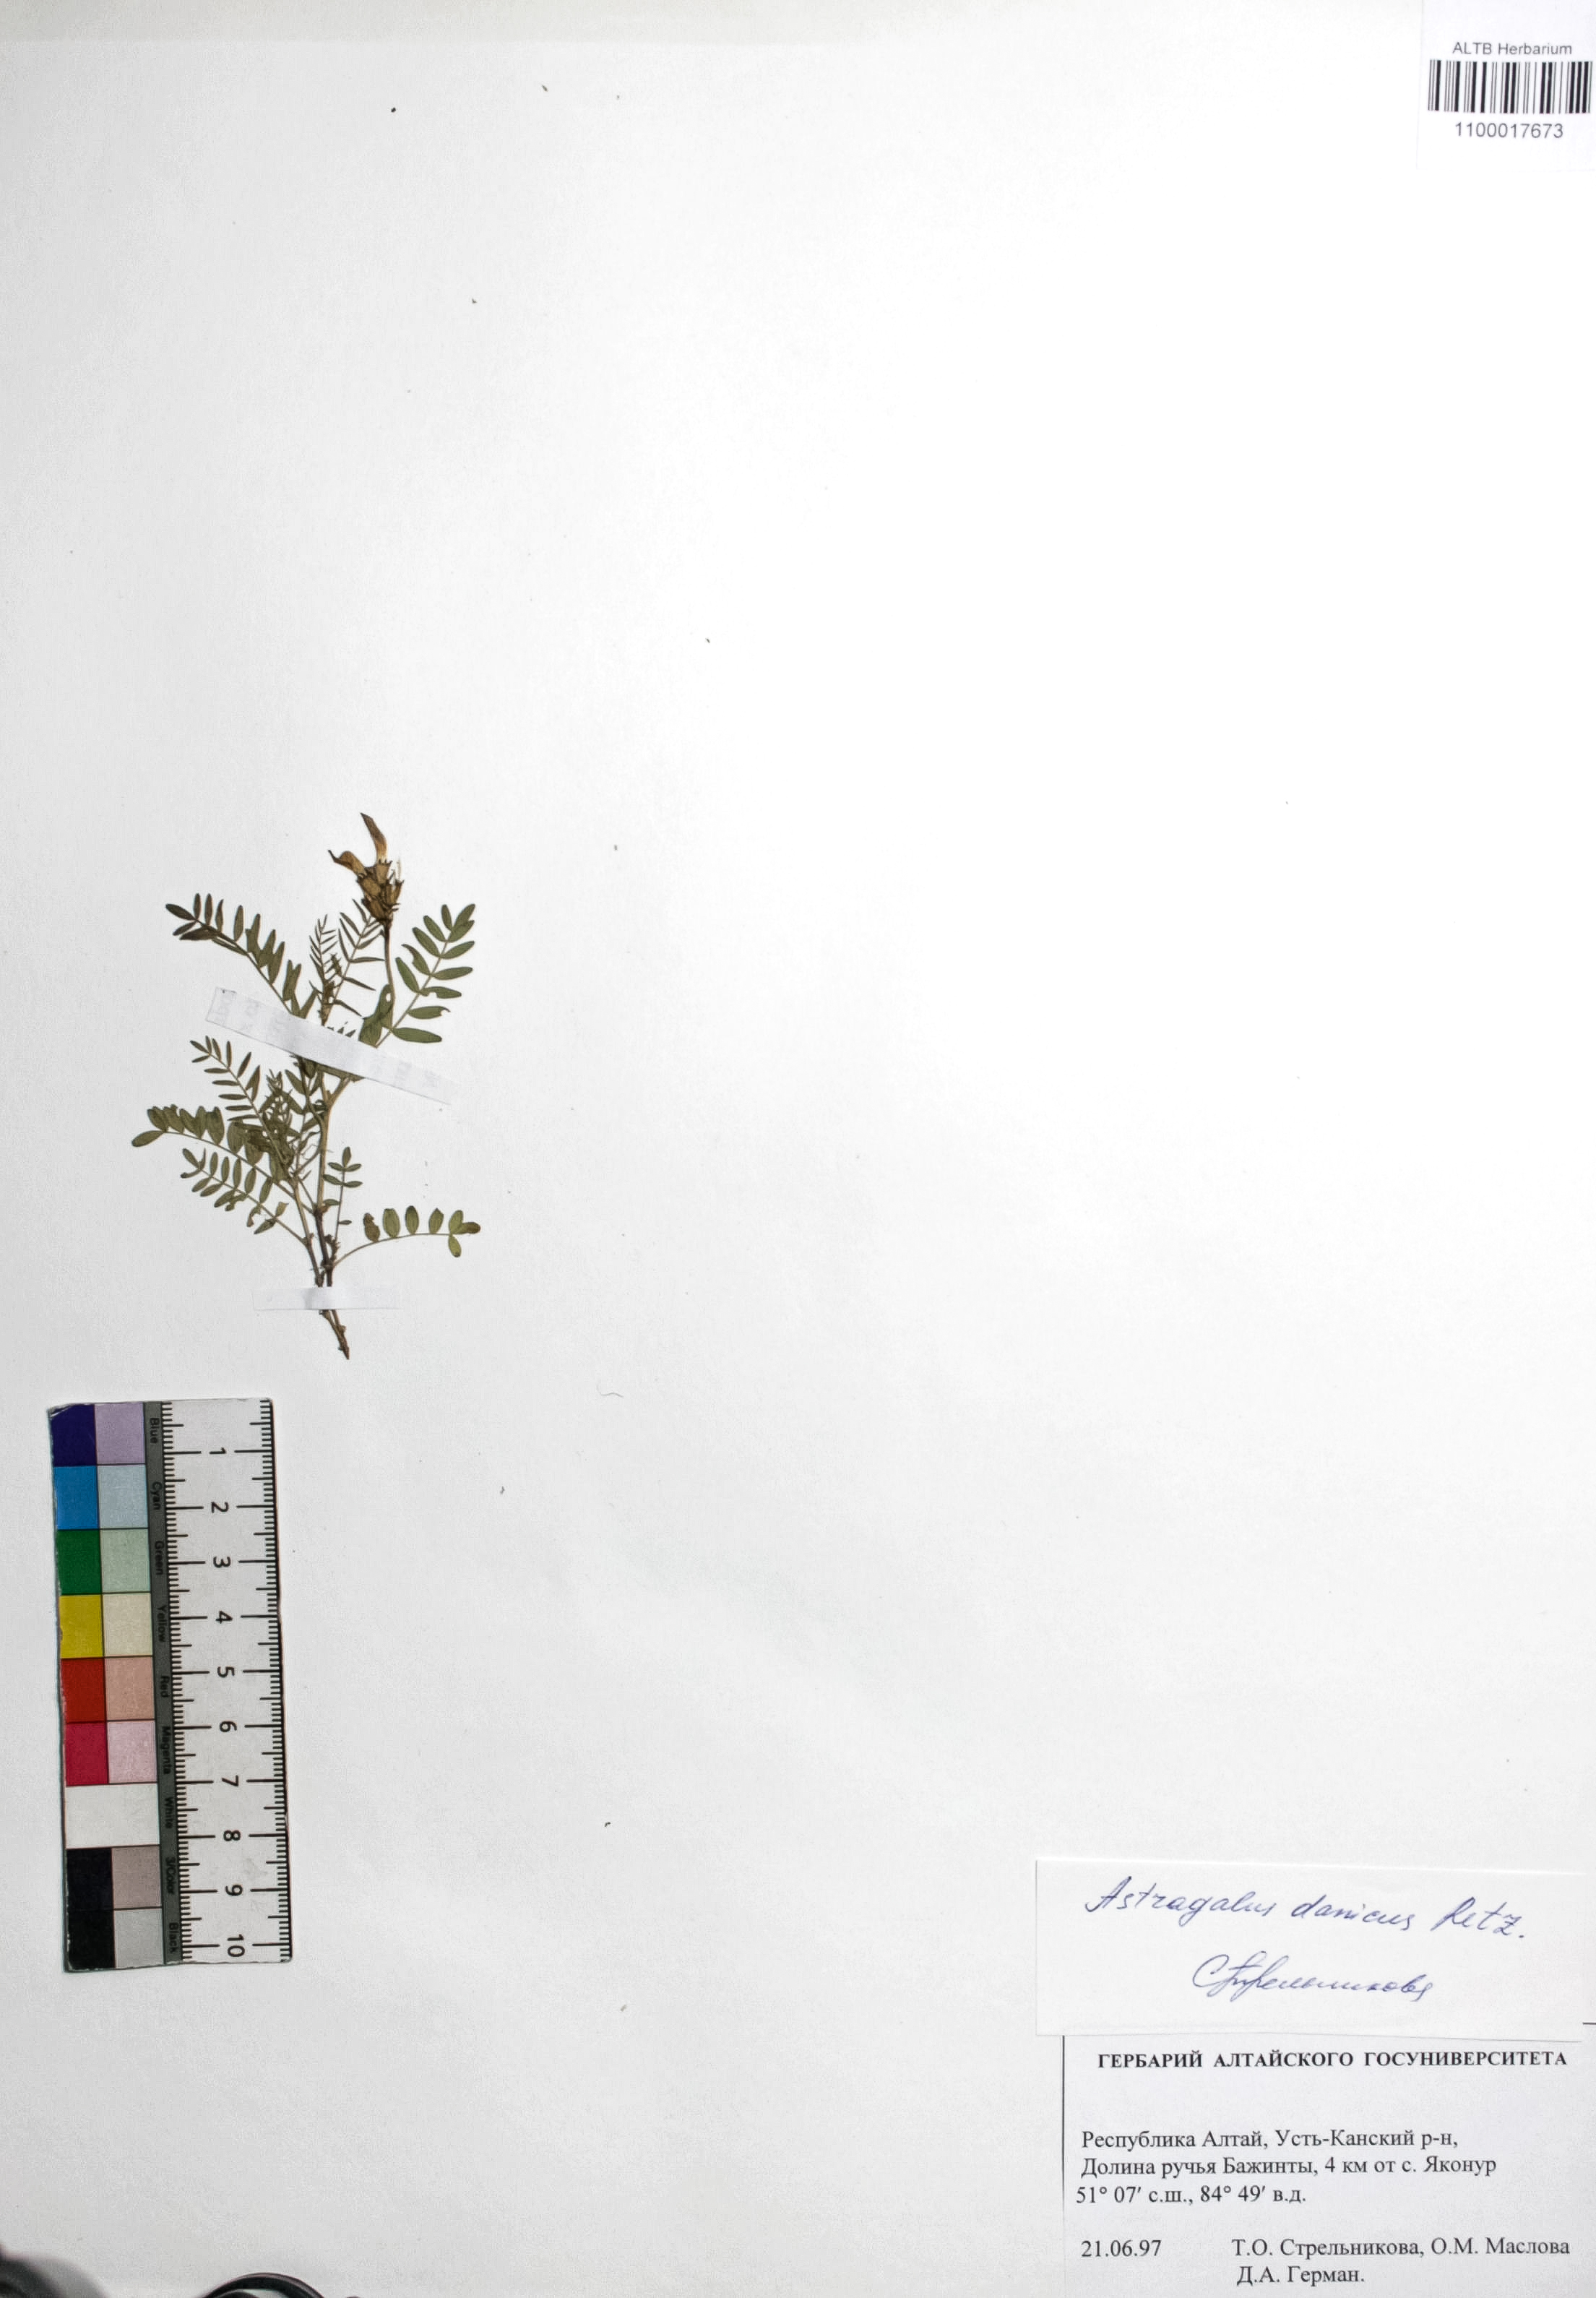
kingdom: Plantae
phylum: Tracheophyta
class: Magnoliopsida
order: Fabales
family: Fabaceae
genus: Astragalus
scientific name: Astragalus danicus
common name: Purple milk-vetch
